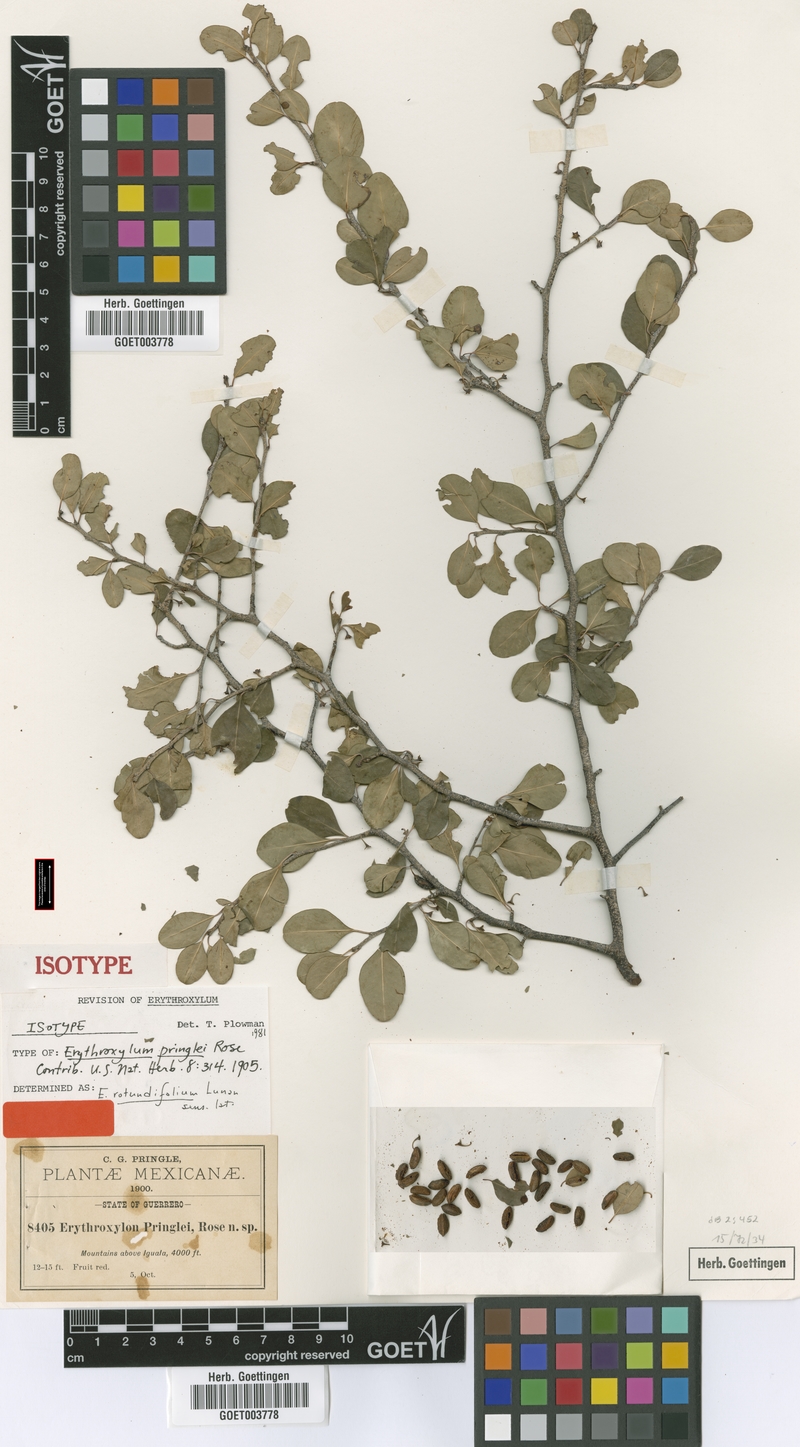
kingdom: Plantae
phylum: Tracheophyta
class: Magnoliopsida
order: Malpighiales
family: Erythroxylaceae
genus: Erythroxylum
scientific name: Erythroxylum rotundifolium
